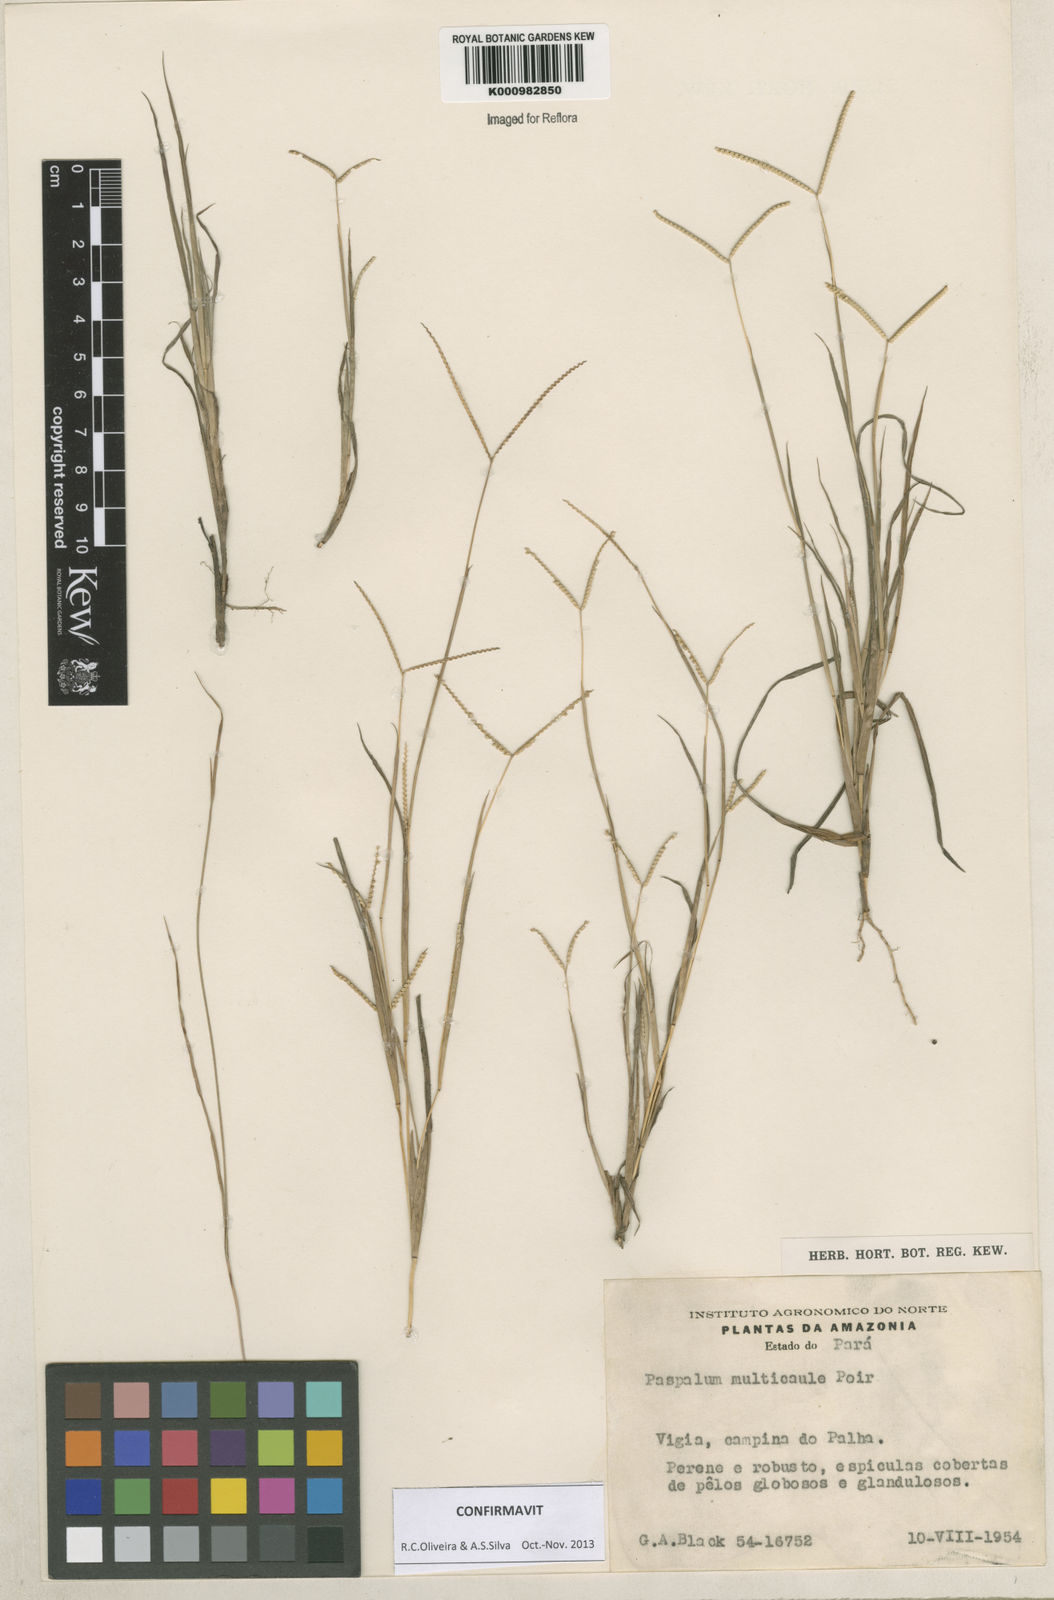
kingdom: Plantae
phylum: Tracheophyta
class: Liliopsida
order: Poales
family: Poaceae
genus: Paspalum
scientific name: Paspalum multicaule
